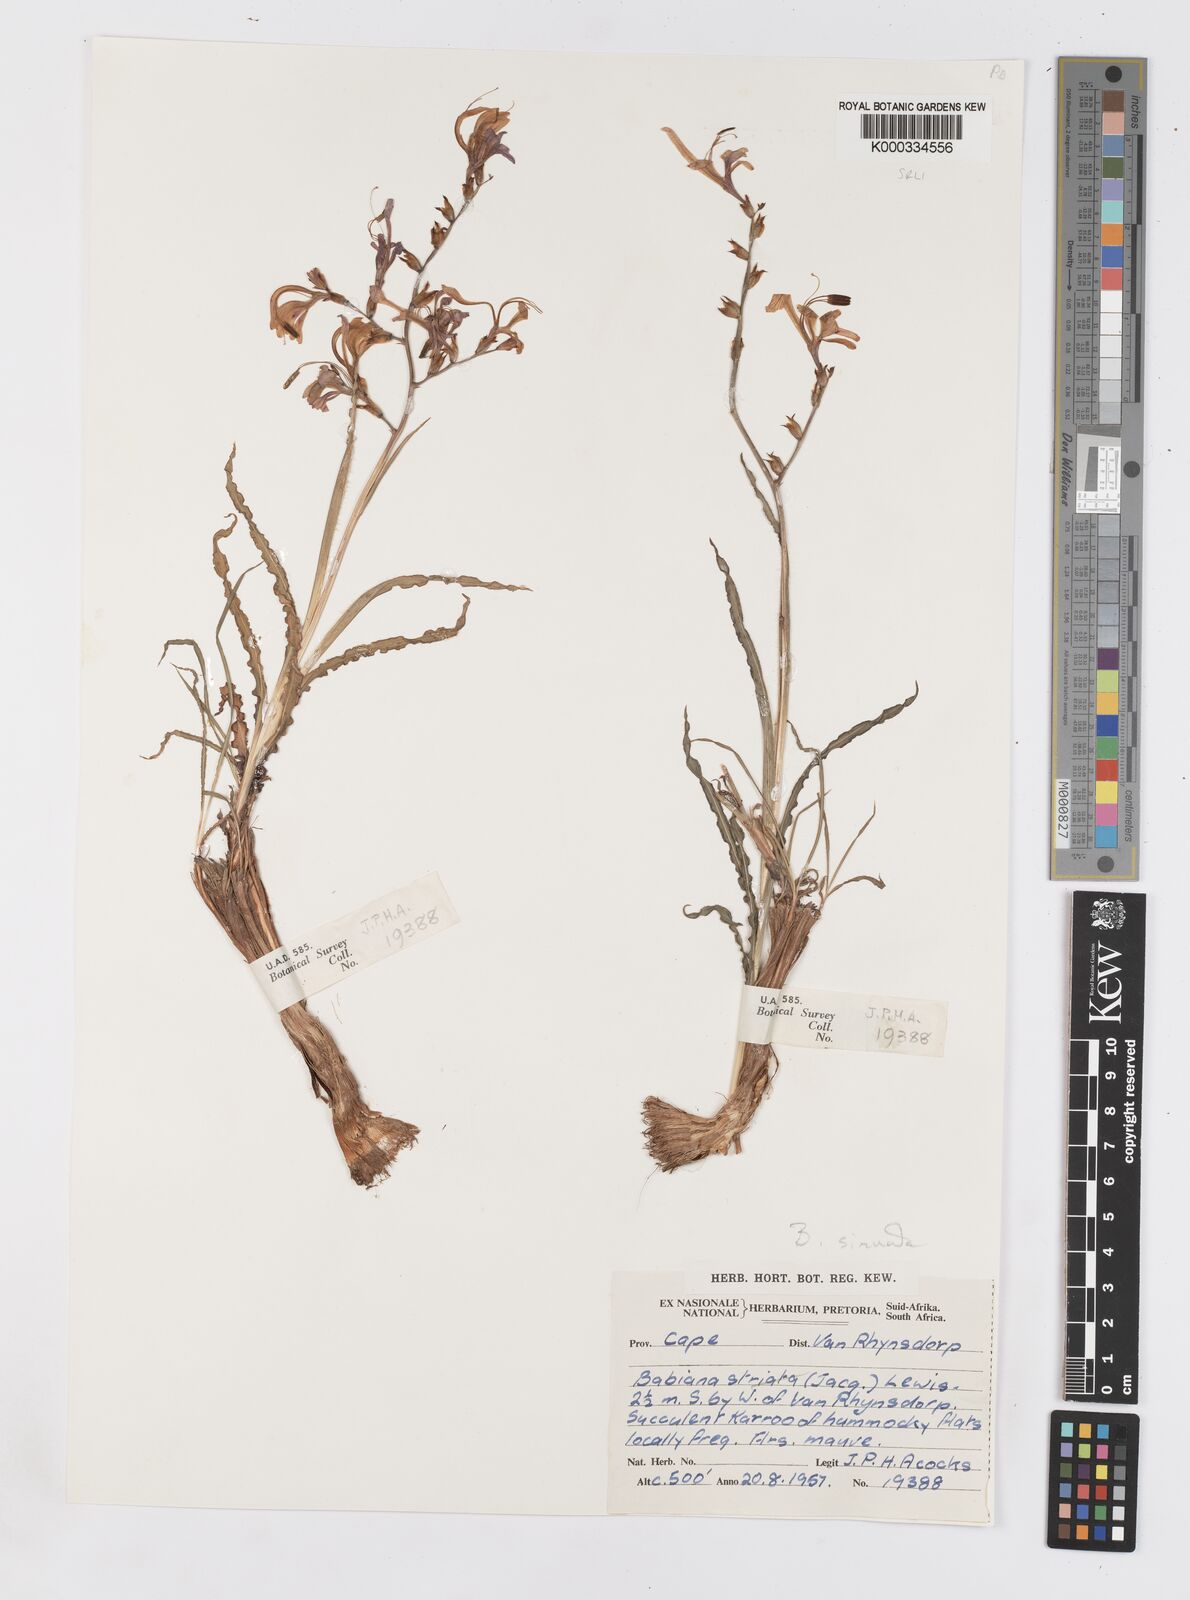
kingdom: Plantae
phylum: Tracheophyta
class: Liliopsida
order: Asparagales
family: Iridaceae
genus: Babiana
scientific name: Babiana
